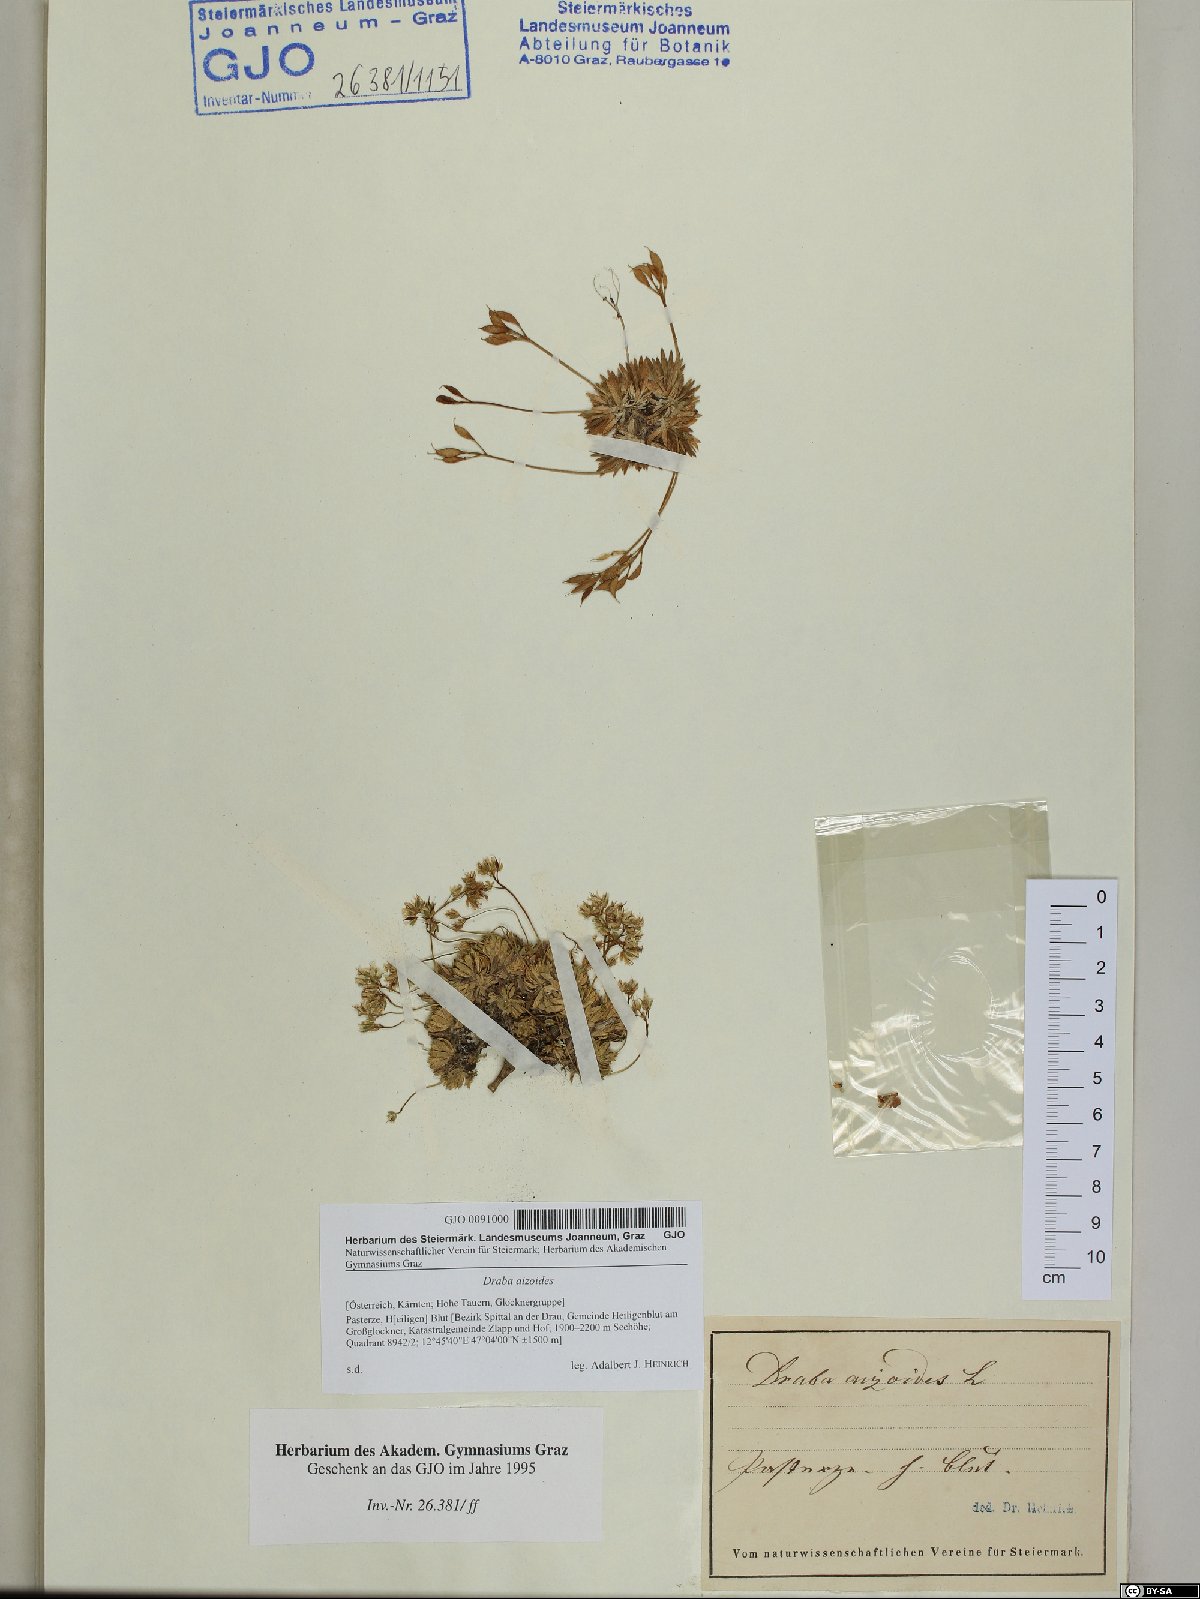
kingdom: Plantae
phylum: Tracheophyta
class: Magnoliopsida
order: Brassicales
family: Brassicaceae
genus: Draba
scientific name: Draba aizoides
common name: Yellow whitlowgrass
